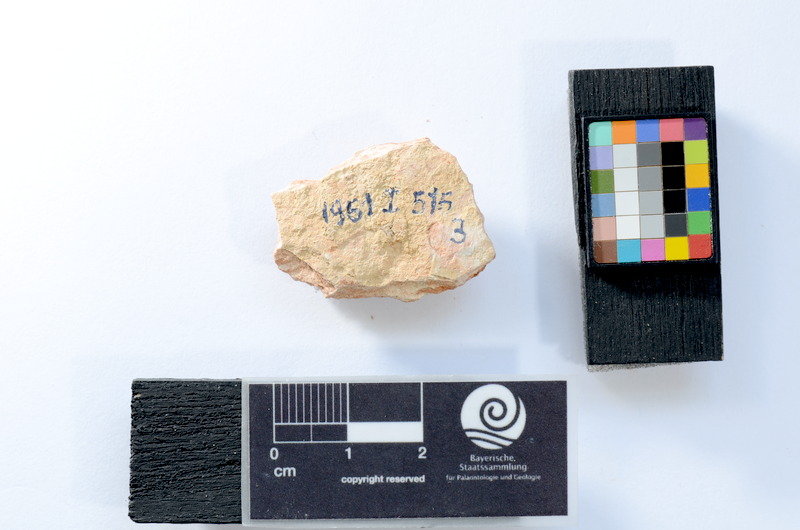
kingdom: Animalia
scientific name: Animalia
